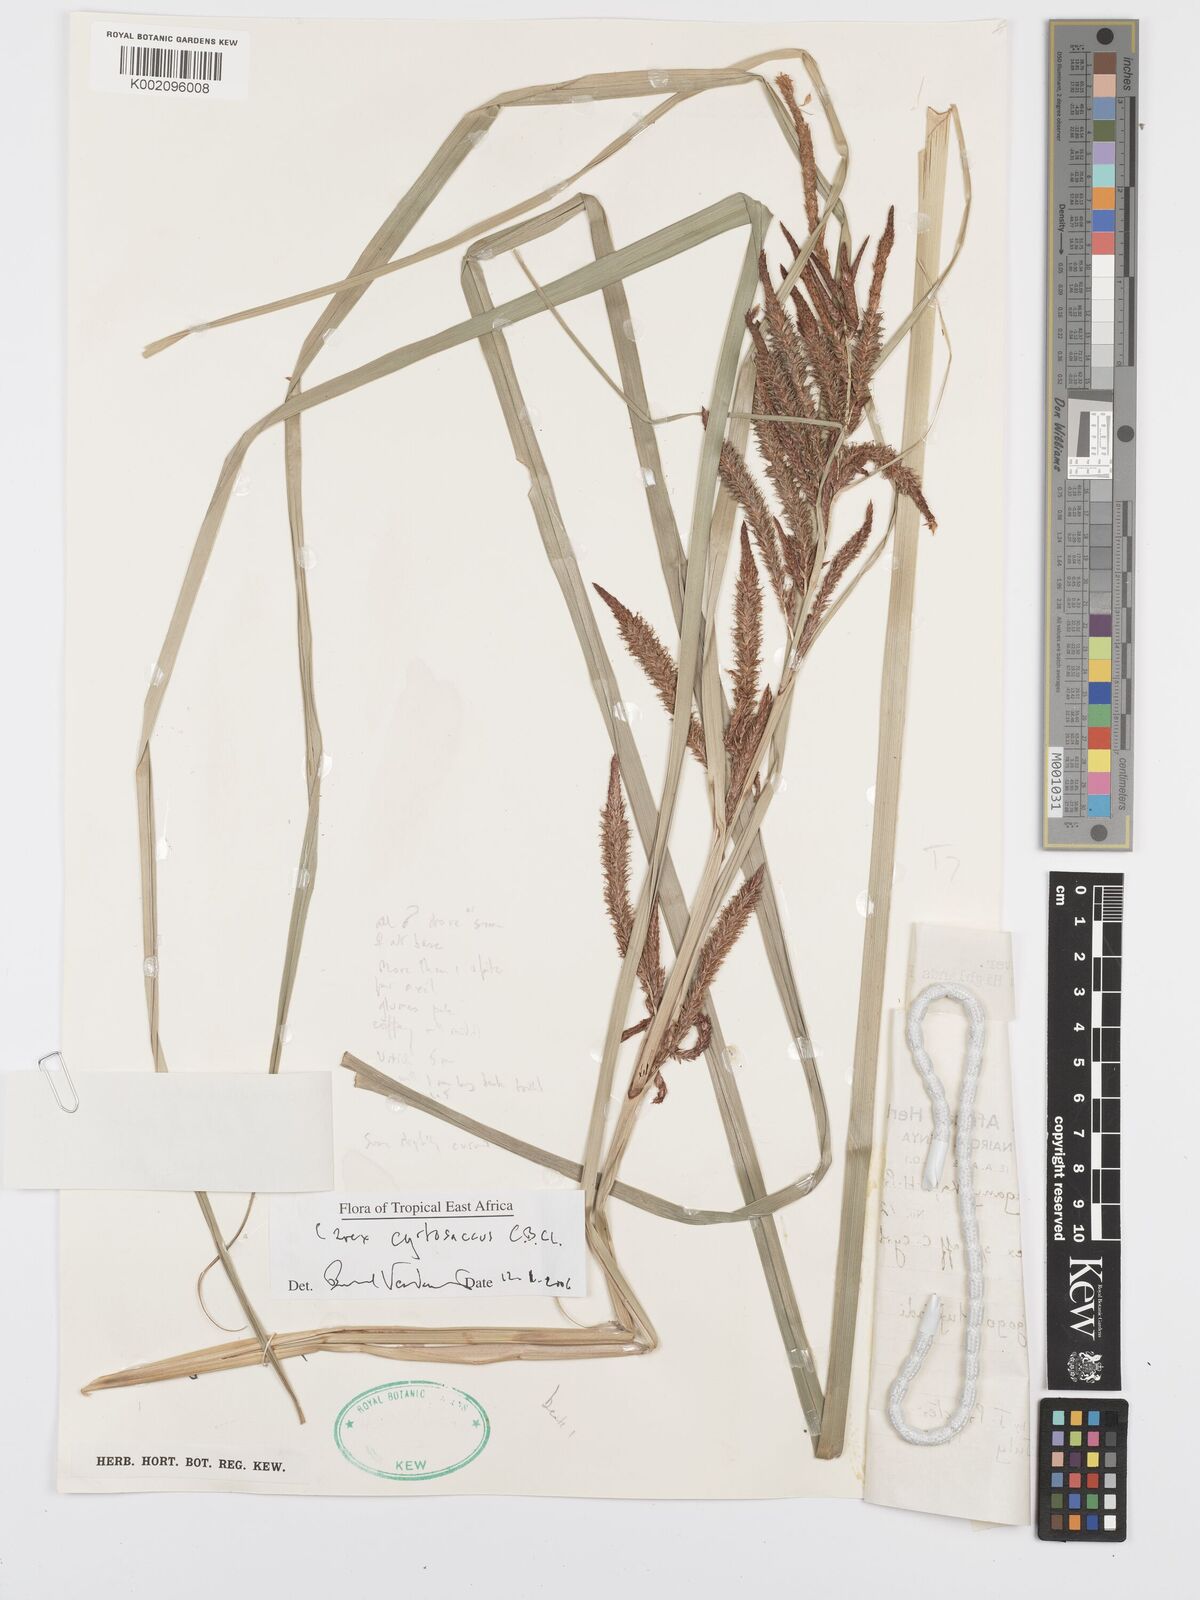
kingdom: Plantae
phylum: Tracheophyta
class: Liliopsida
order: Poales
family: Cyperaceae
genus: Carex
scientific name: Carex vallis-rosetto
